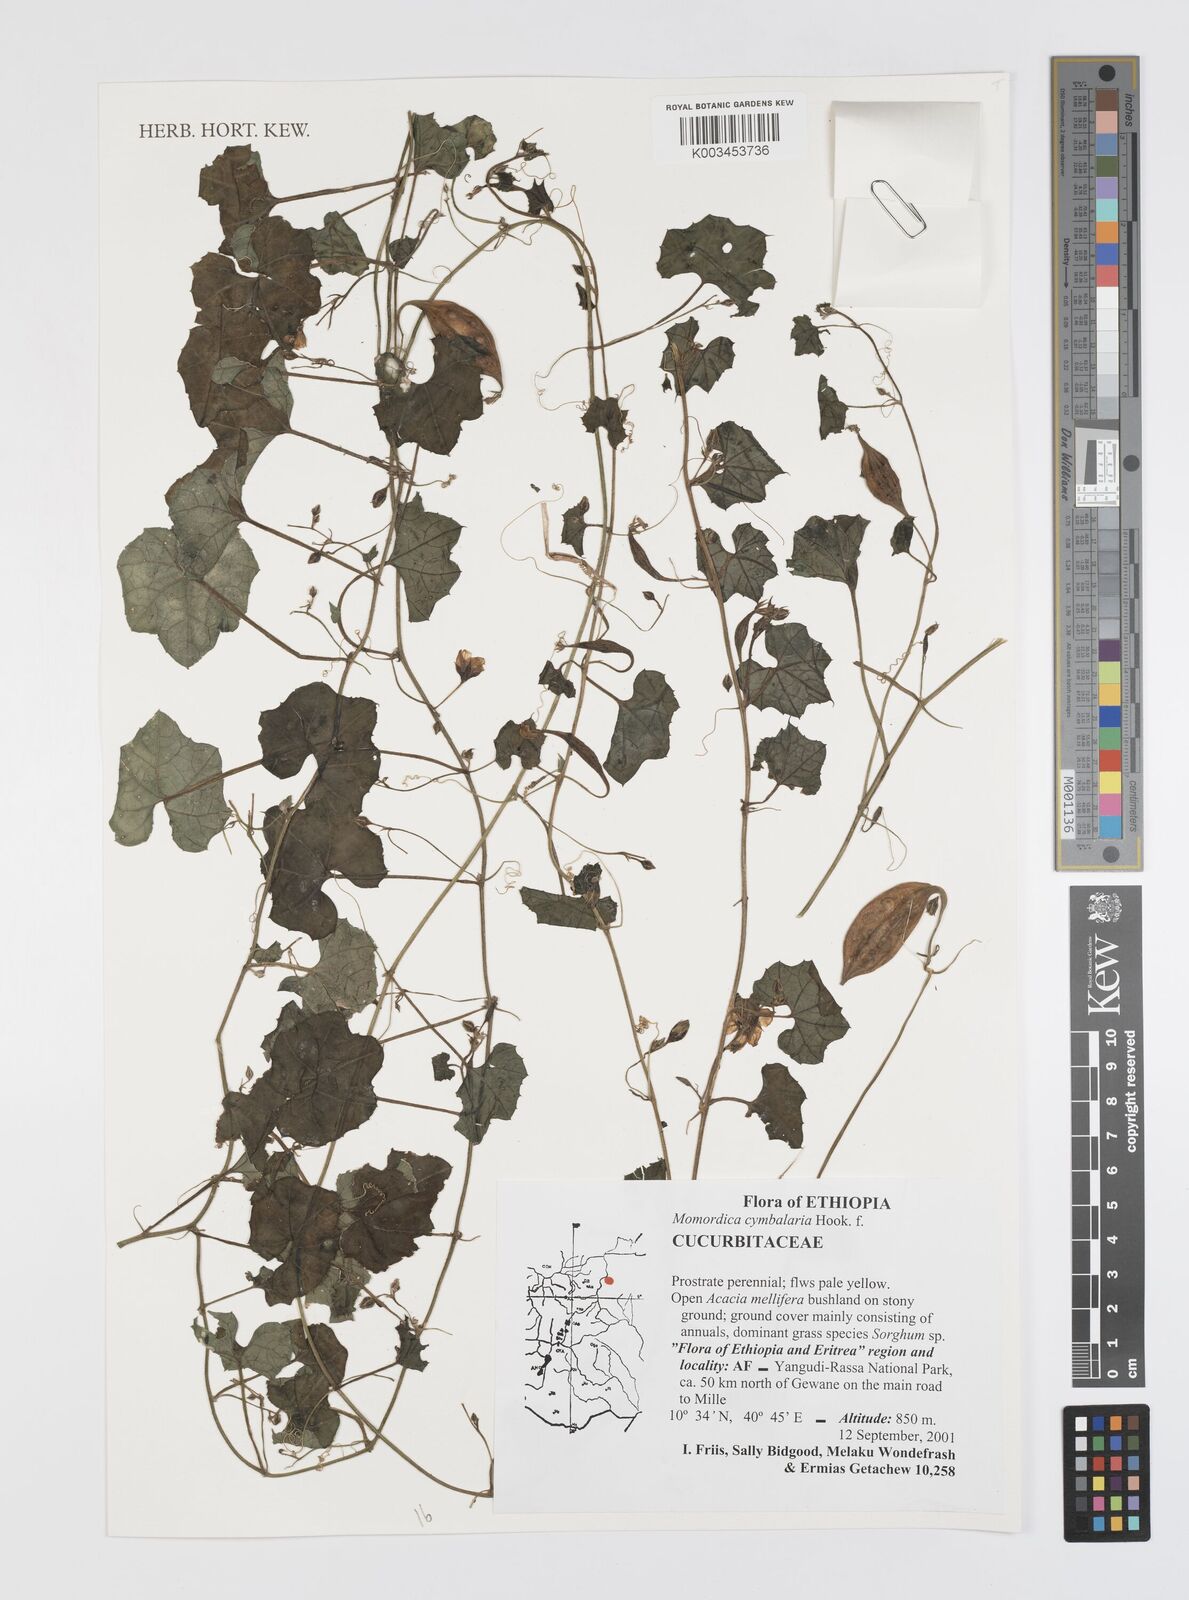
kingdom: Plantae
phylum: Tracheophyta
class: Magnoliopsida
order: Cucurbitales
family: Cucurbitaceae
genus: Momordica
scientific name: Momordica cymbalaria
